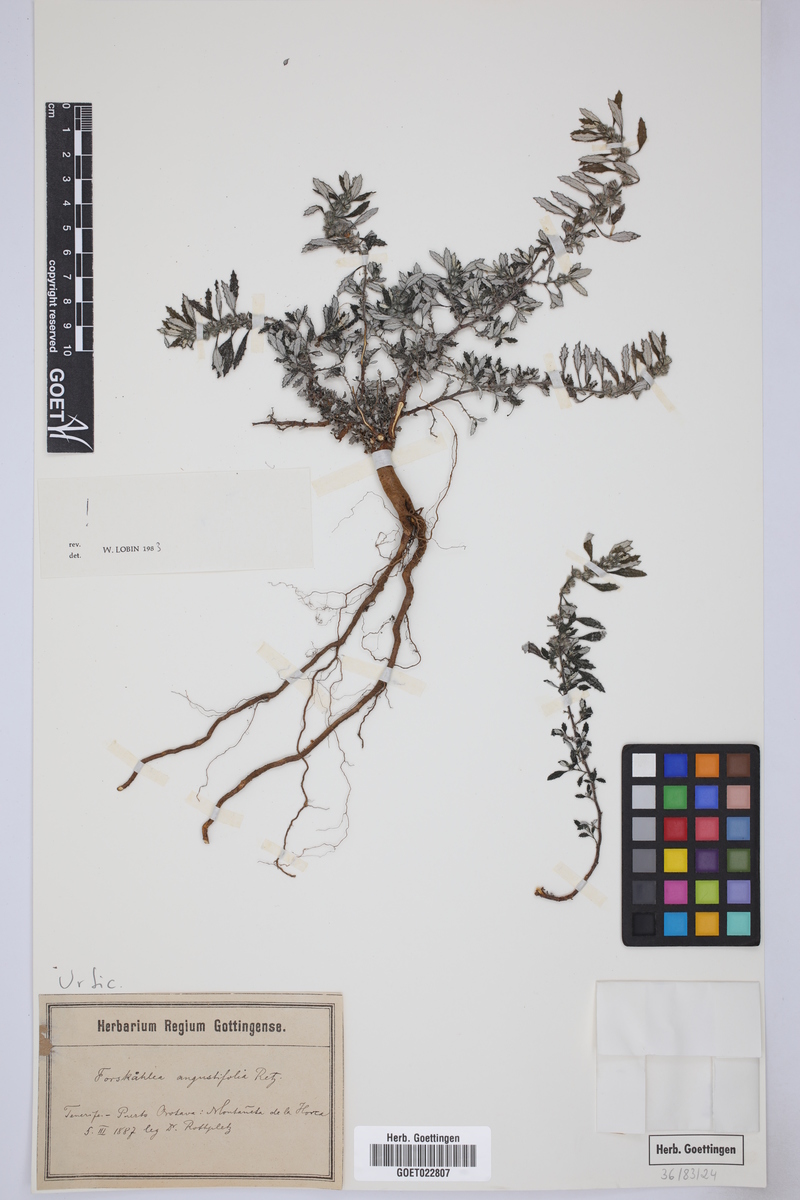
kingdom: Plantae
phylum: Tracheophyta
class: Magnoliopsida
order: Rosales
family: Urticaceae
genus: Forsskaolea
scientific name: Forsskaolea angustifolia
